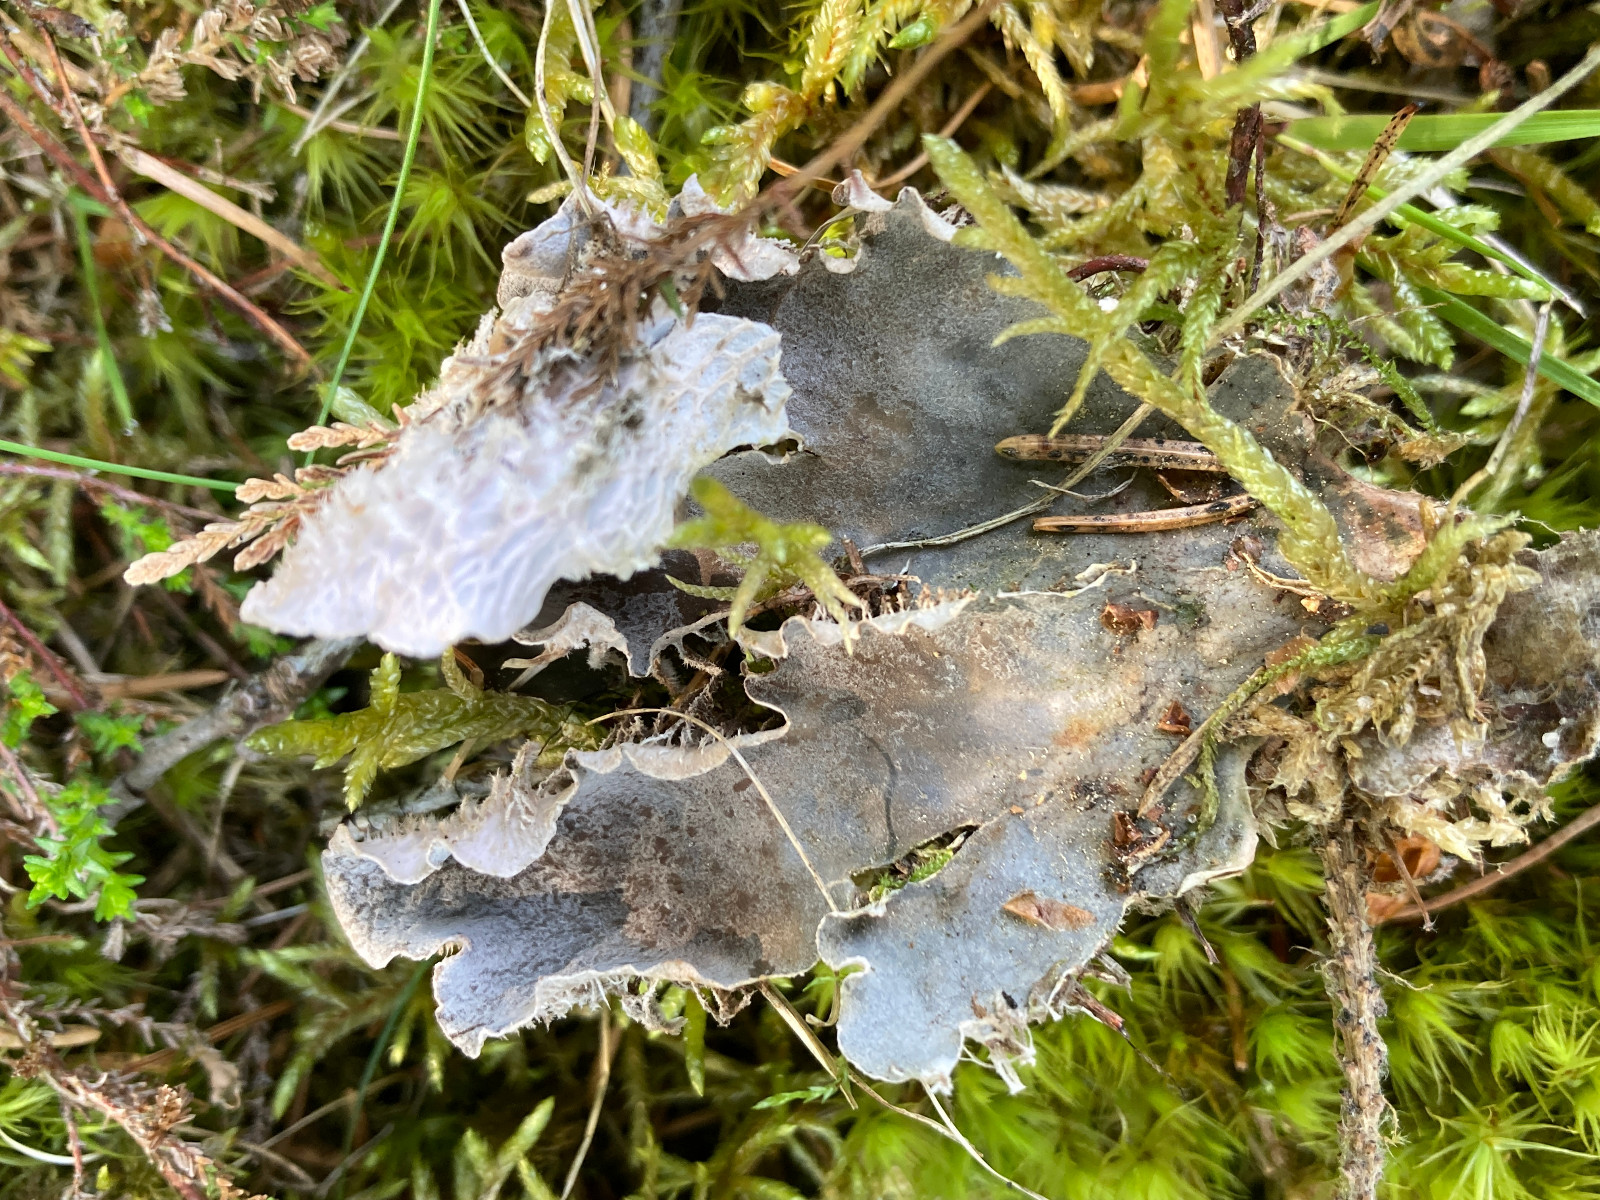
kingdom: Fungi
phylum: Ascomycota
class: Lecanoromycetes
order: Peltigerales
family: Peltigeraceae
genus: Peltigera
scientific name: Peltigera membranacea
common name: tynd skjoldlav
